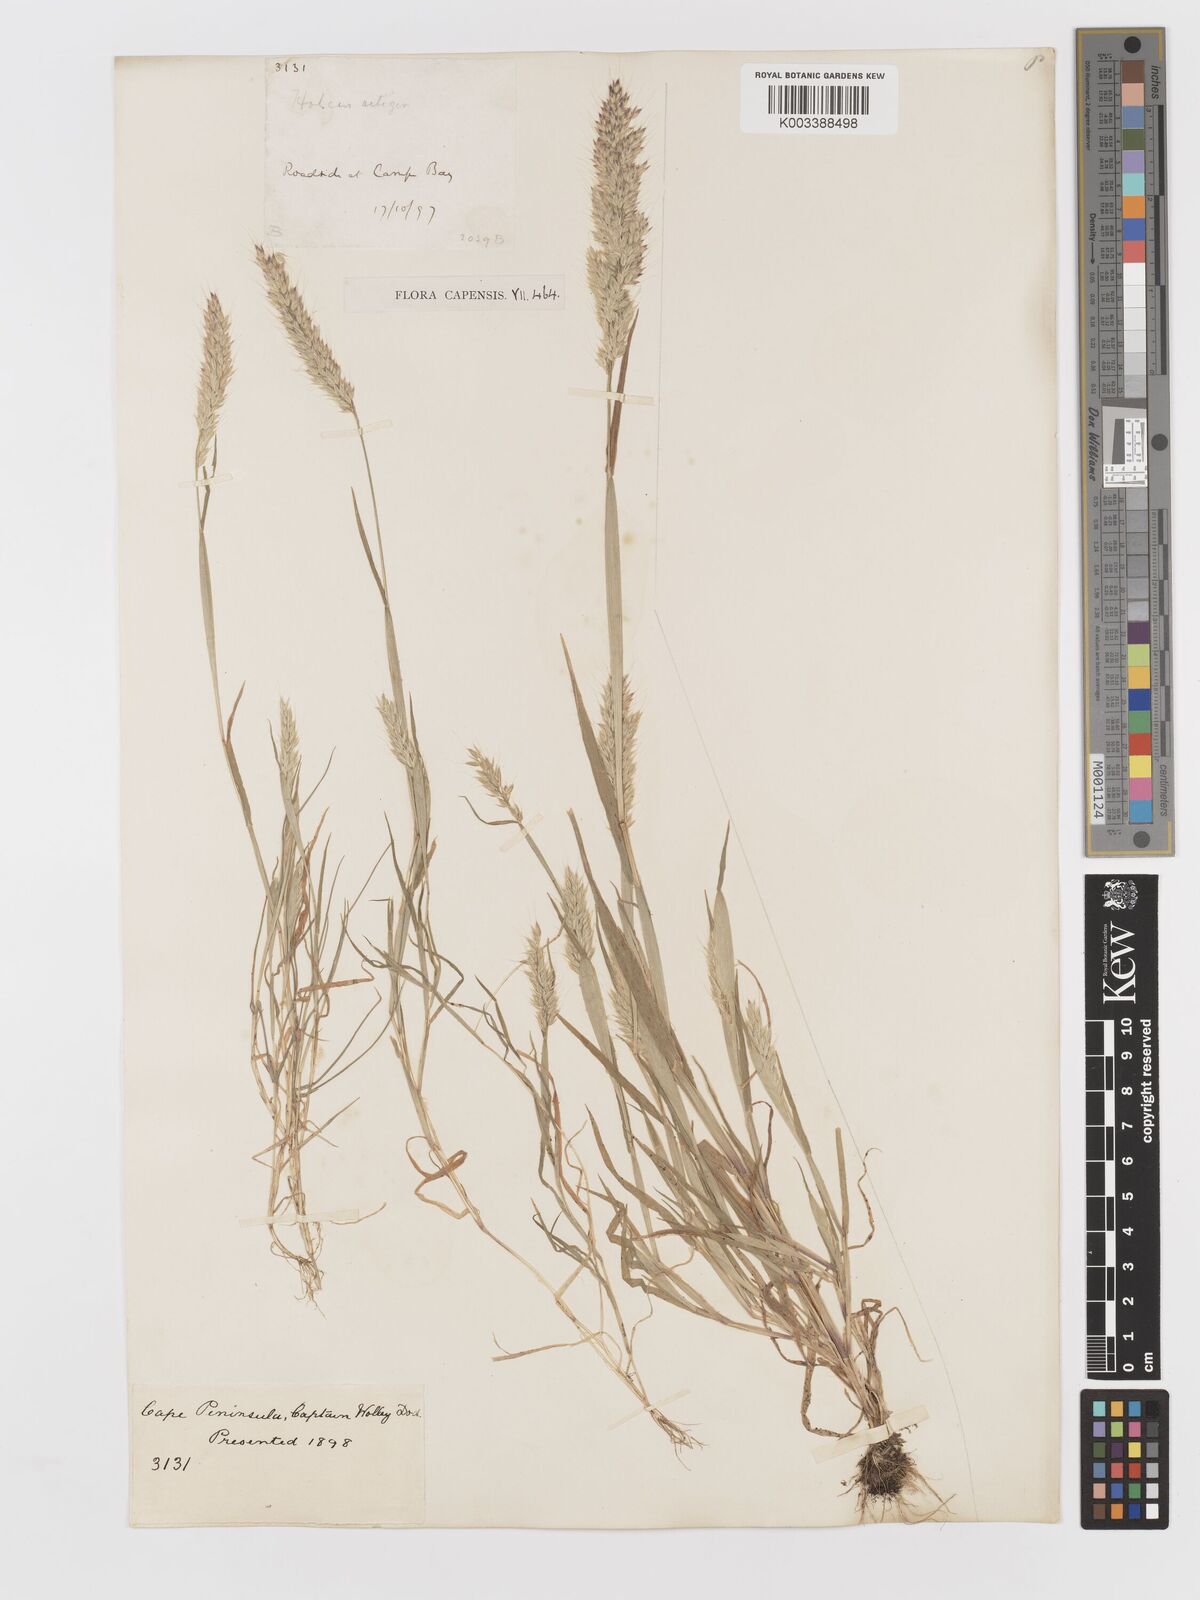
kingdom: Plantae
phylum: Tracheophyta
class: Liliopsida
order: Poales
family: Poaceae
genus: Holcus
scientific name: Holcus setiger
